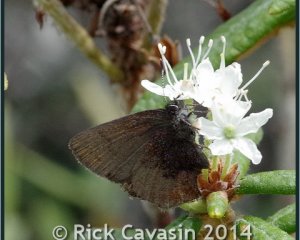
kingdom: Animalia
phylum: Arthropoda
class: Insecta
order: Lepidoptera
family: Lycaenidae
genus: Incisalia
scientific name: Incisalia irioides
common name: Brown Elfin
